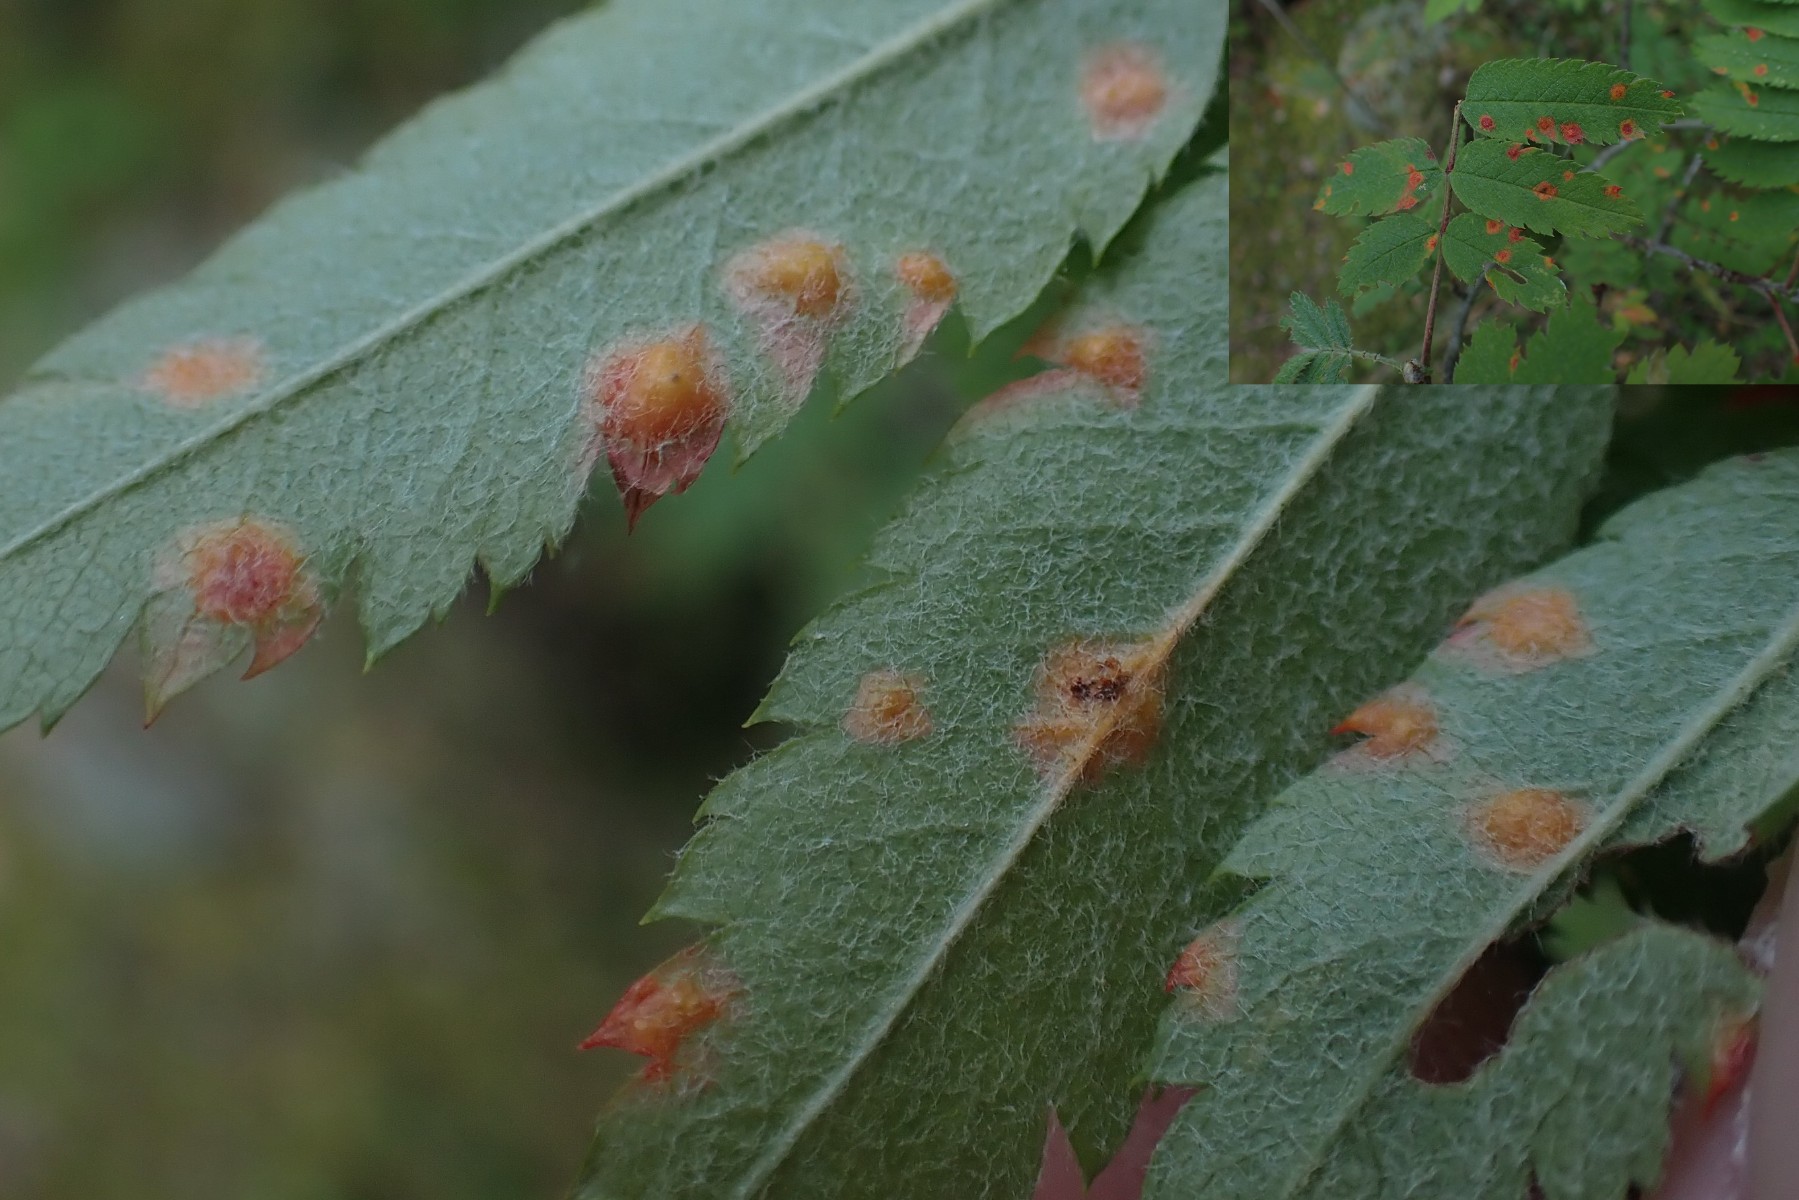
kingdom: Fungi
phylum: Basidiomycota
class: Pucciniomycetes
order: Pucciniales
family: Gymnosporangiaceae
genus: Gymnosporangium
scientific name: Gymnosporangium cornutum
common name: rønnehorn-bævrerust
